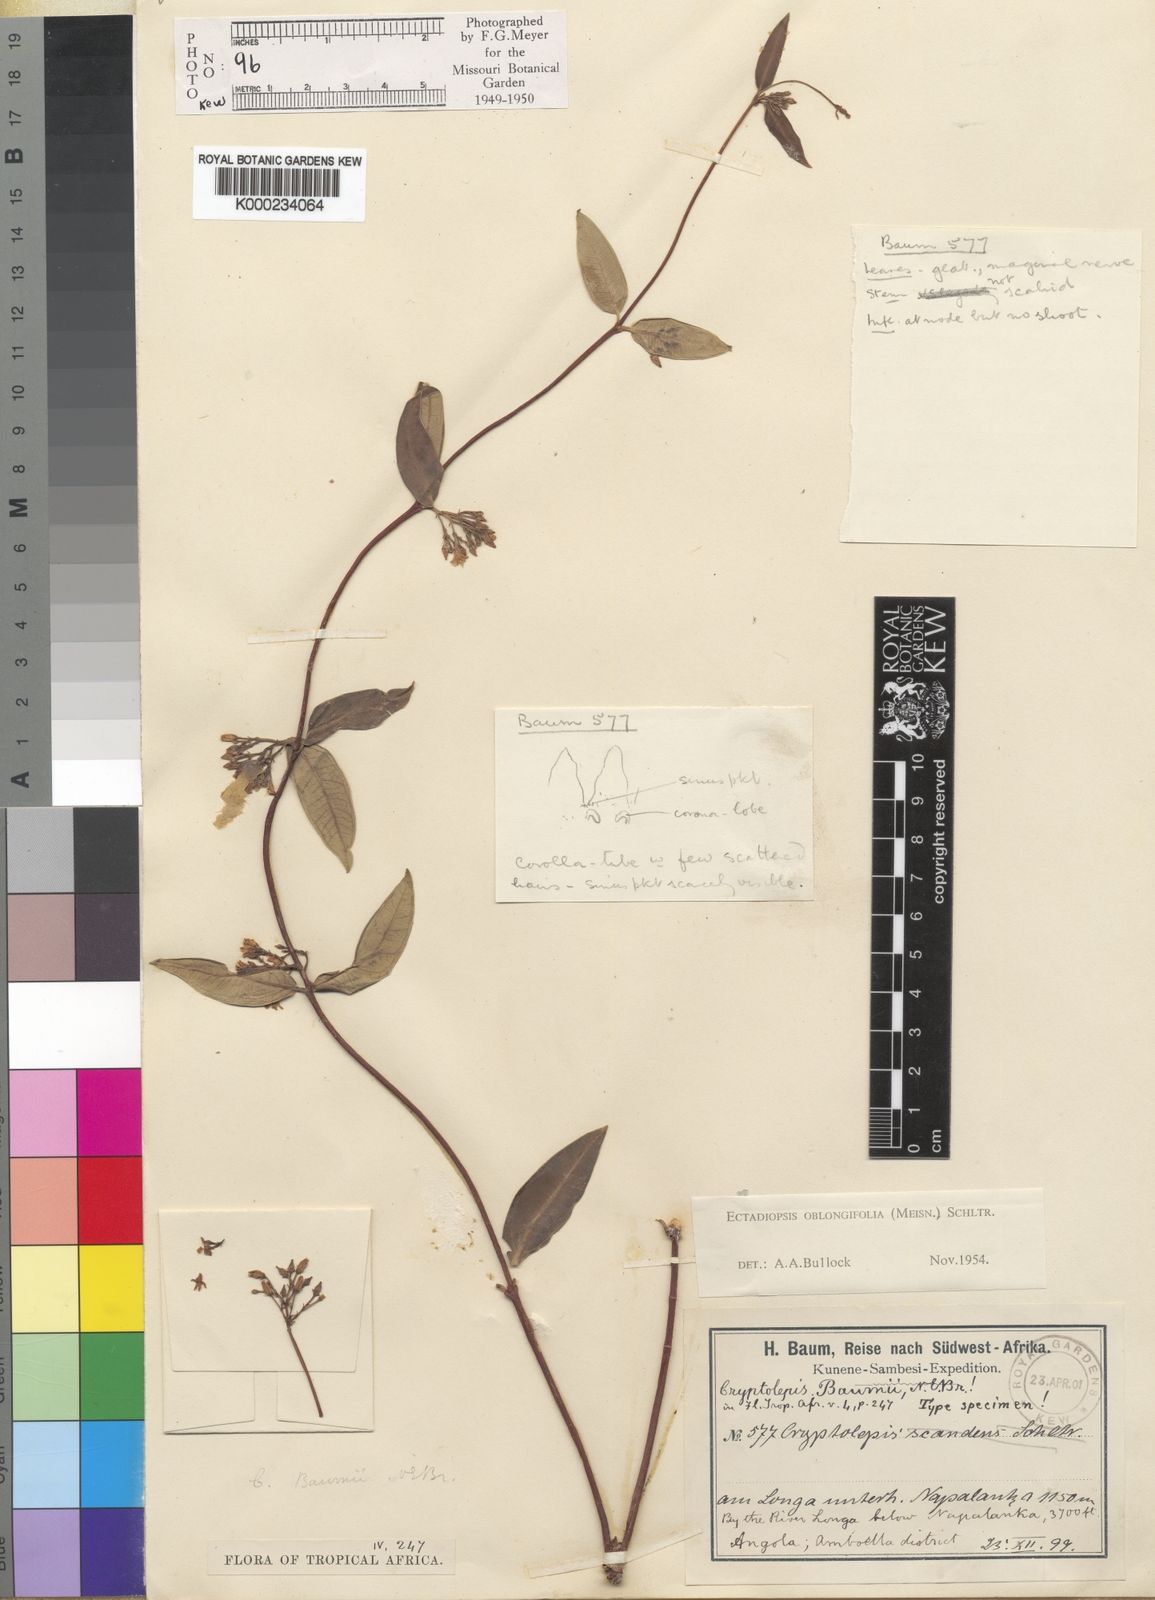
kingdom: Plantae
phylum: Tracheophyta
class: Magnoliopsida
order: Gentianales
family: Apocynaceae
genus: Cryptolepis
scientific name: Cryptolepis oblongifolia
